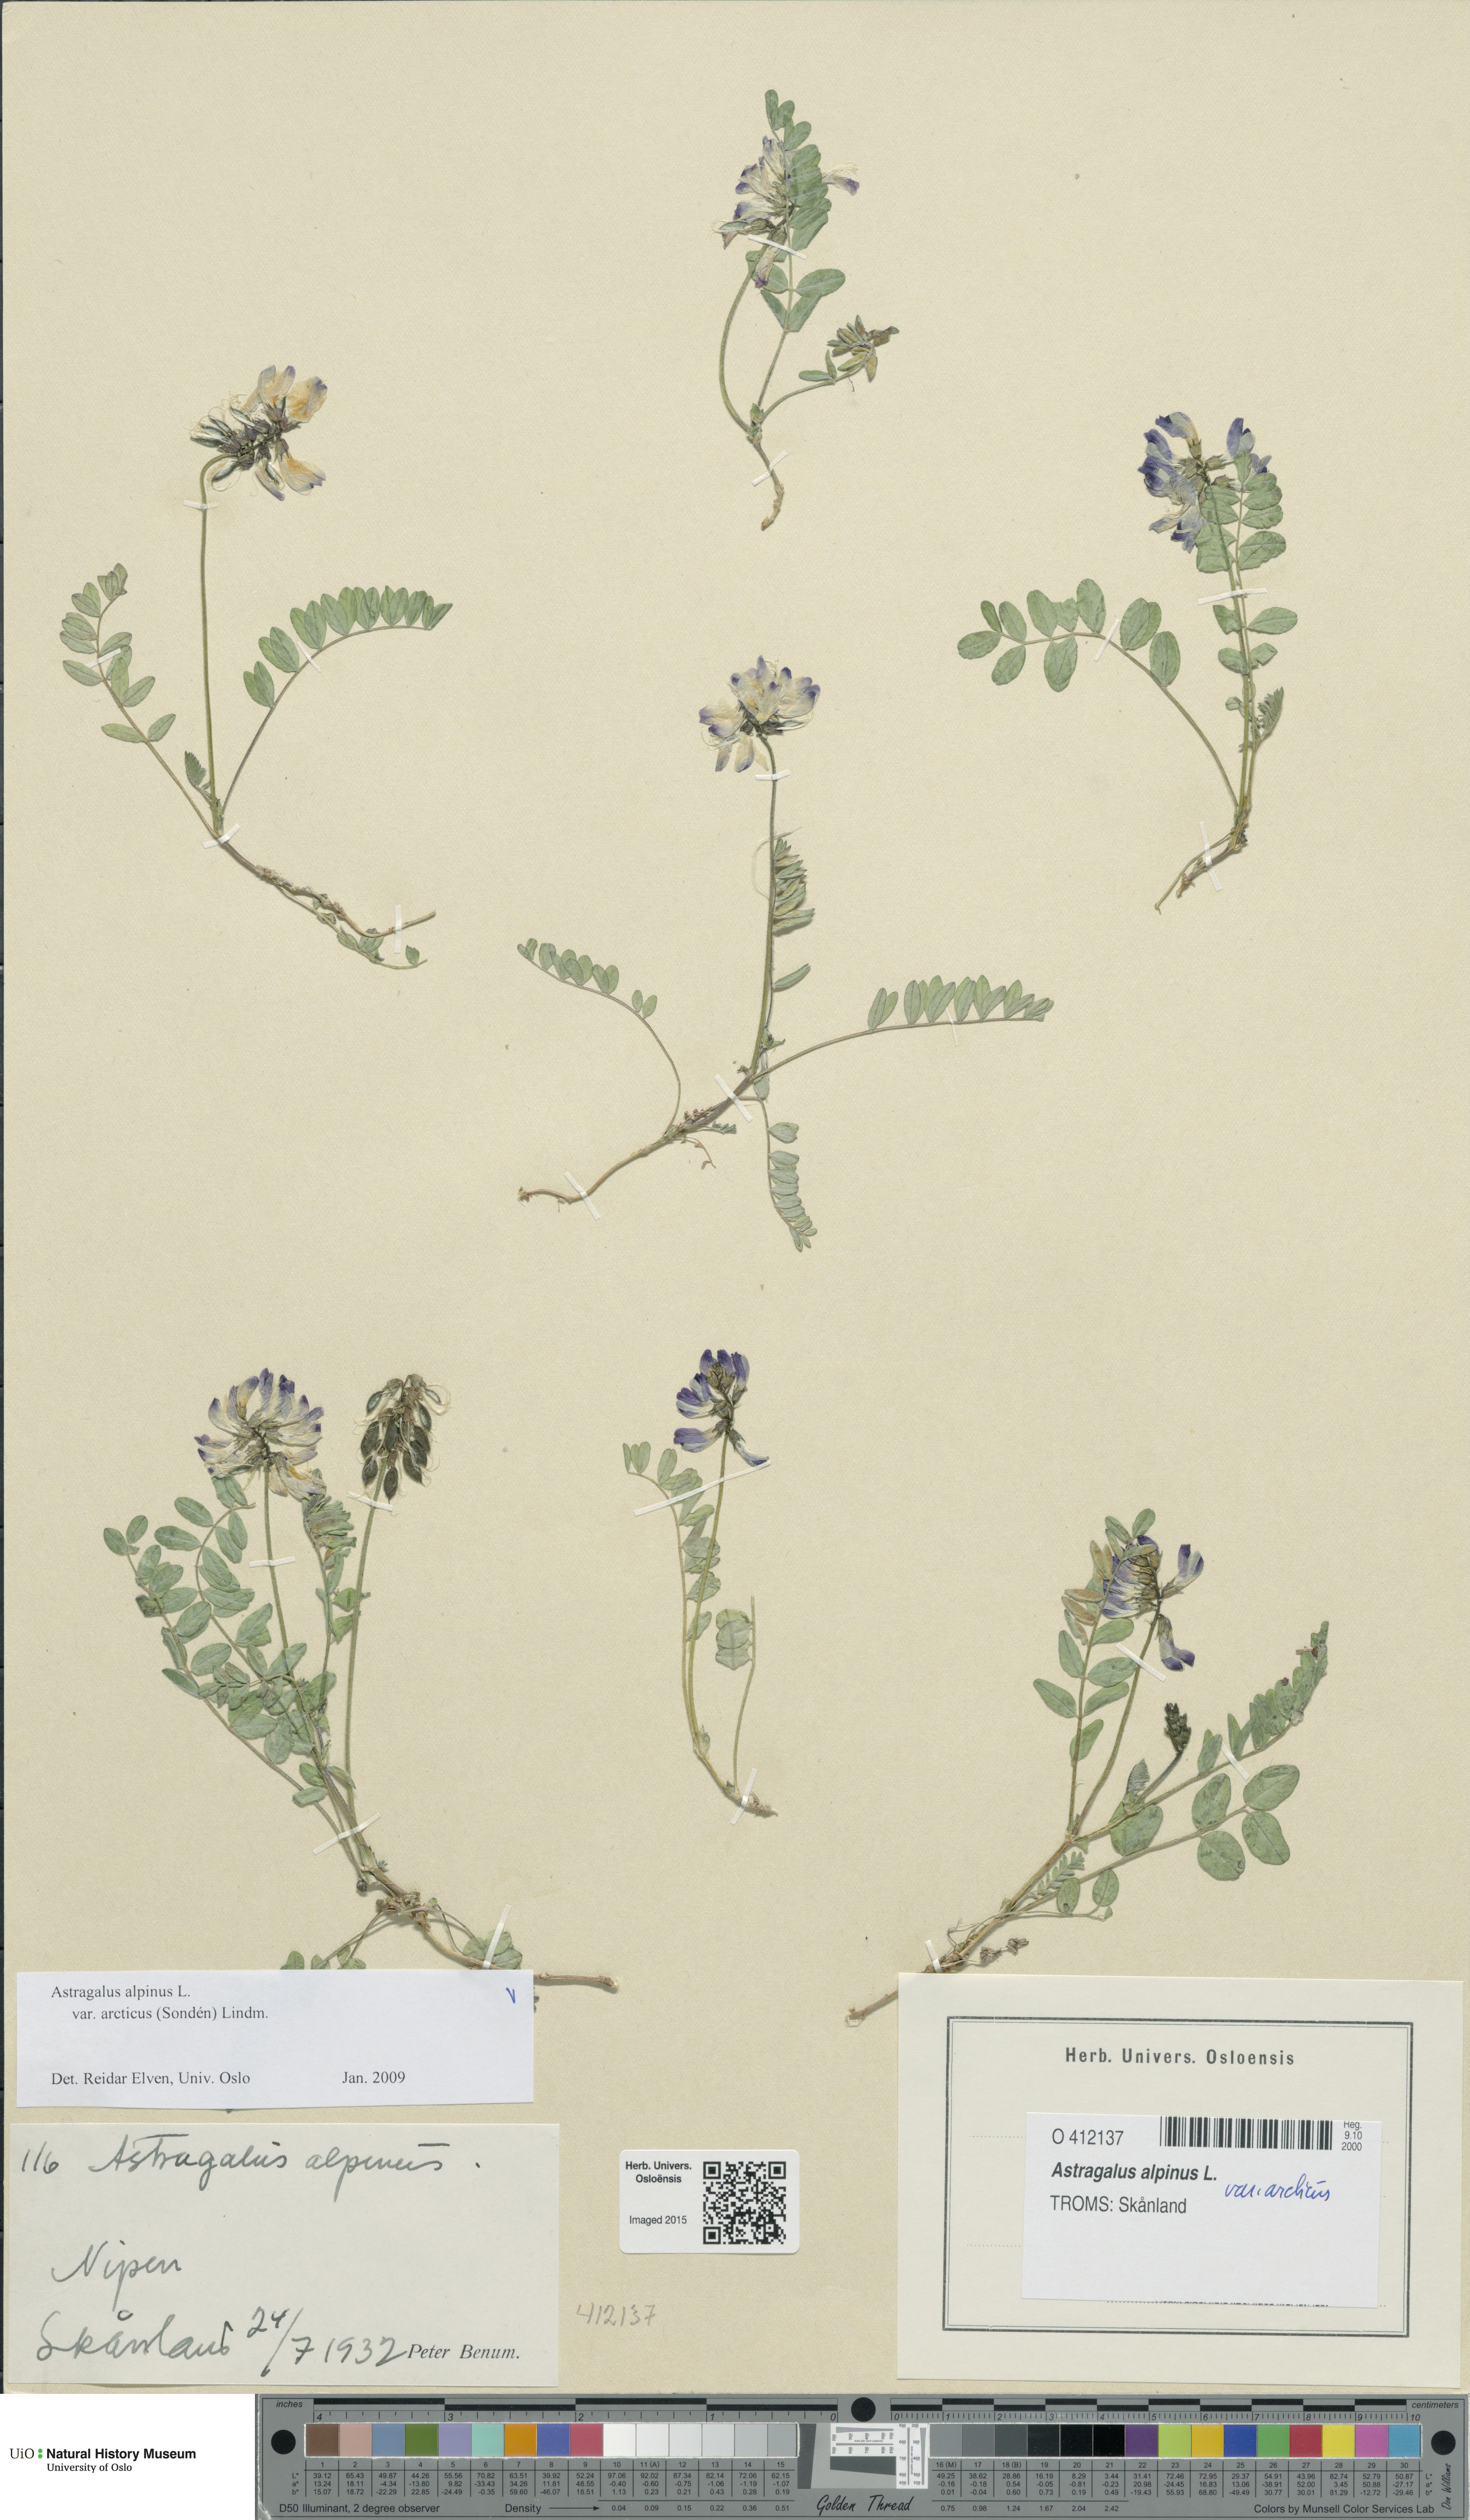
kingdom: Plantae
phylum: Tracheophyta
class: Magnoliopsida
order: Fabales
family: Fabaceae
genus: Astragalus
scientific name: Astragalus norvegicus
